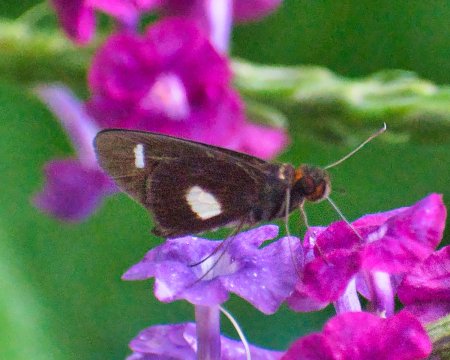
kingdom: Animalia
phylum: Arthropoda
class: Insecta
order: Lepidoptera
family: Hesperiidae
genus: Cobalus
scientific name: Cobalus calvina
